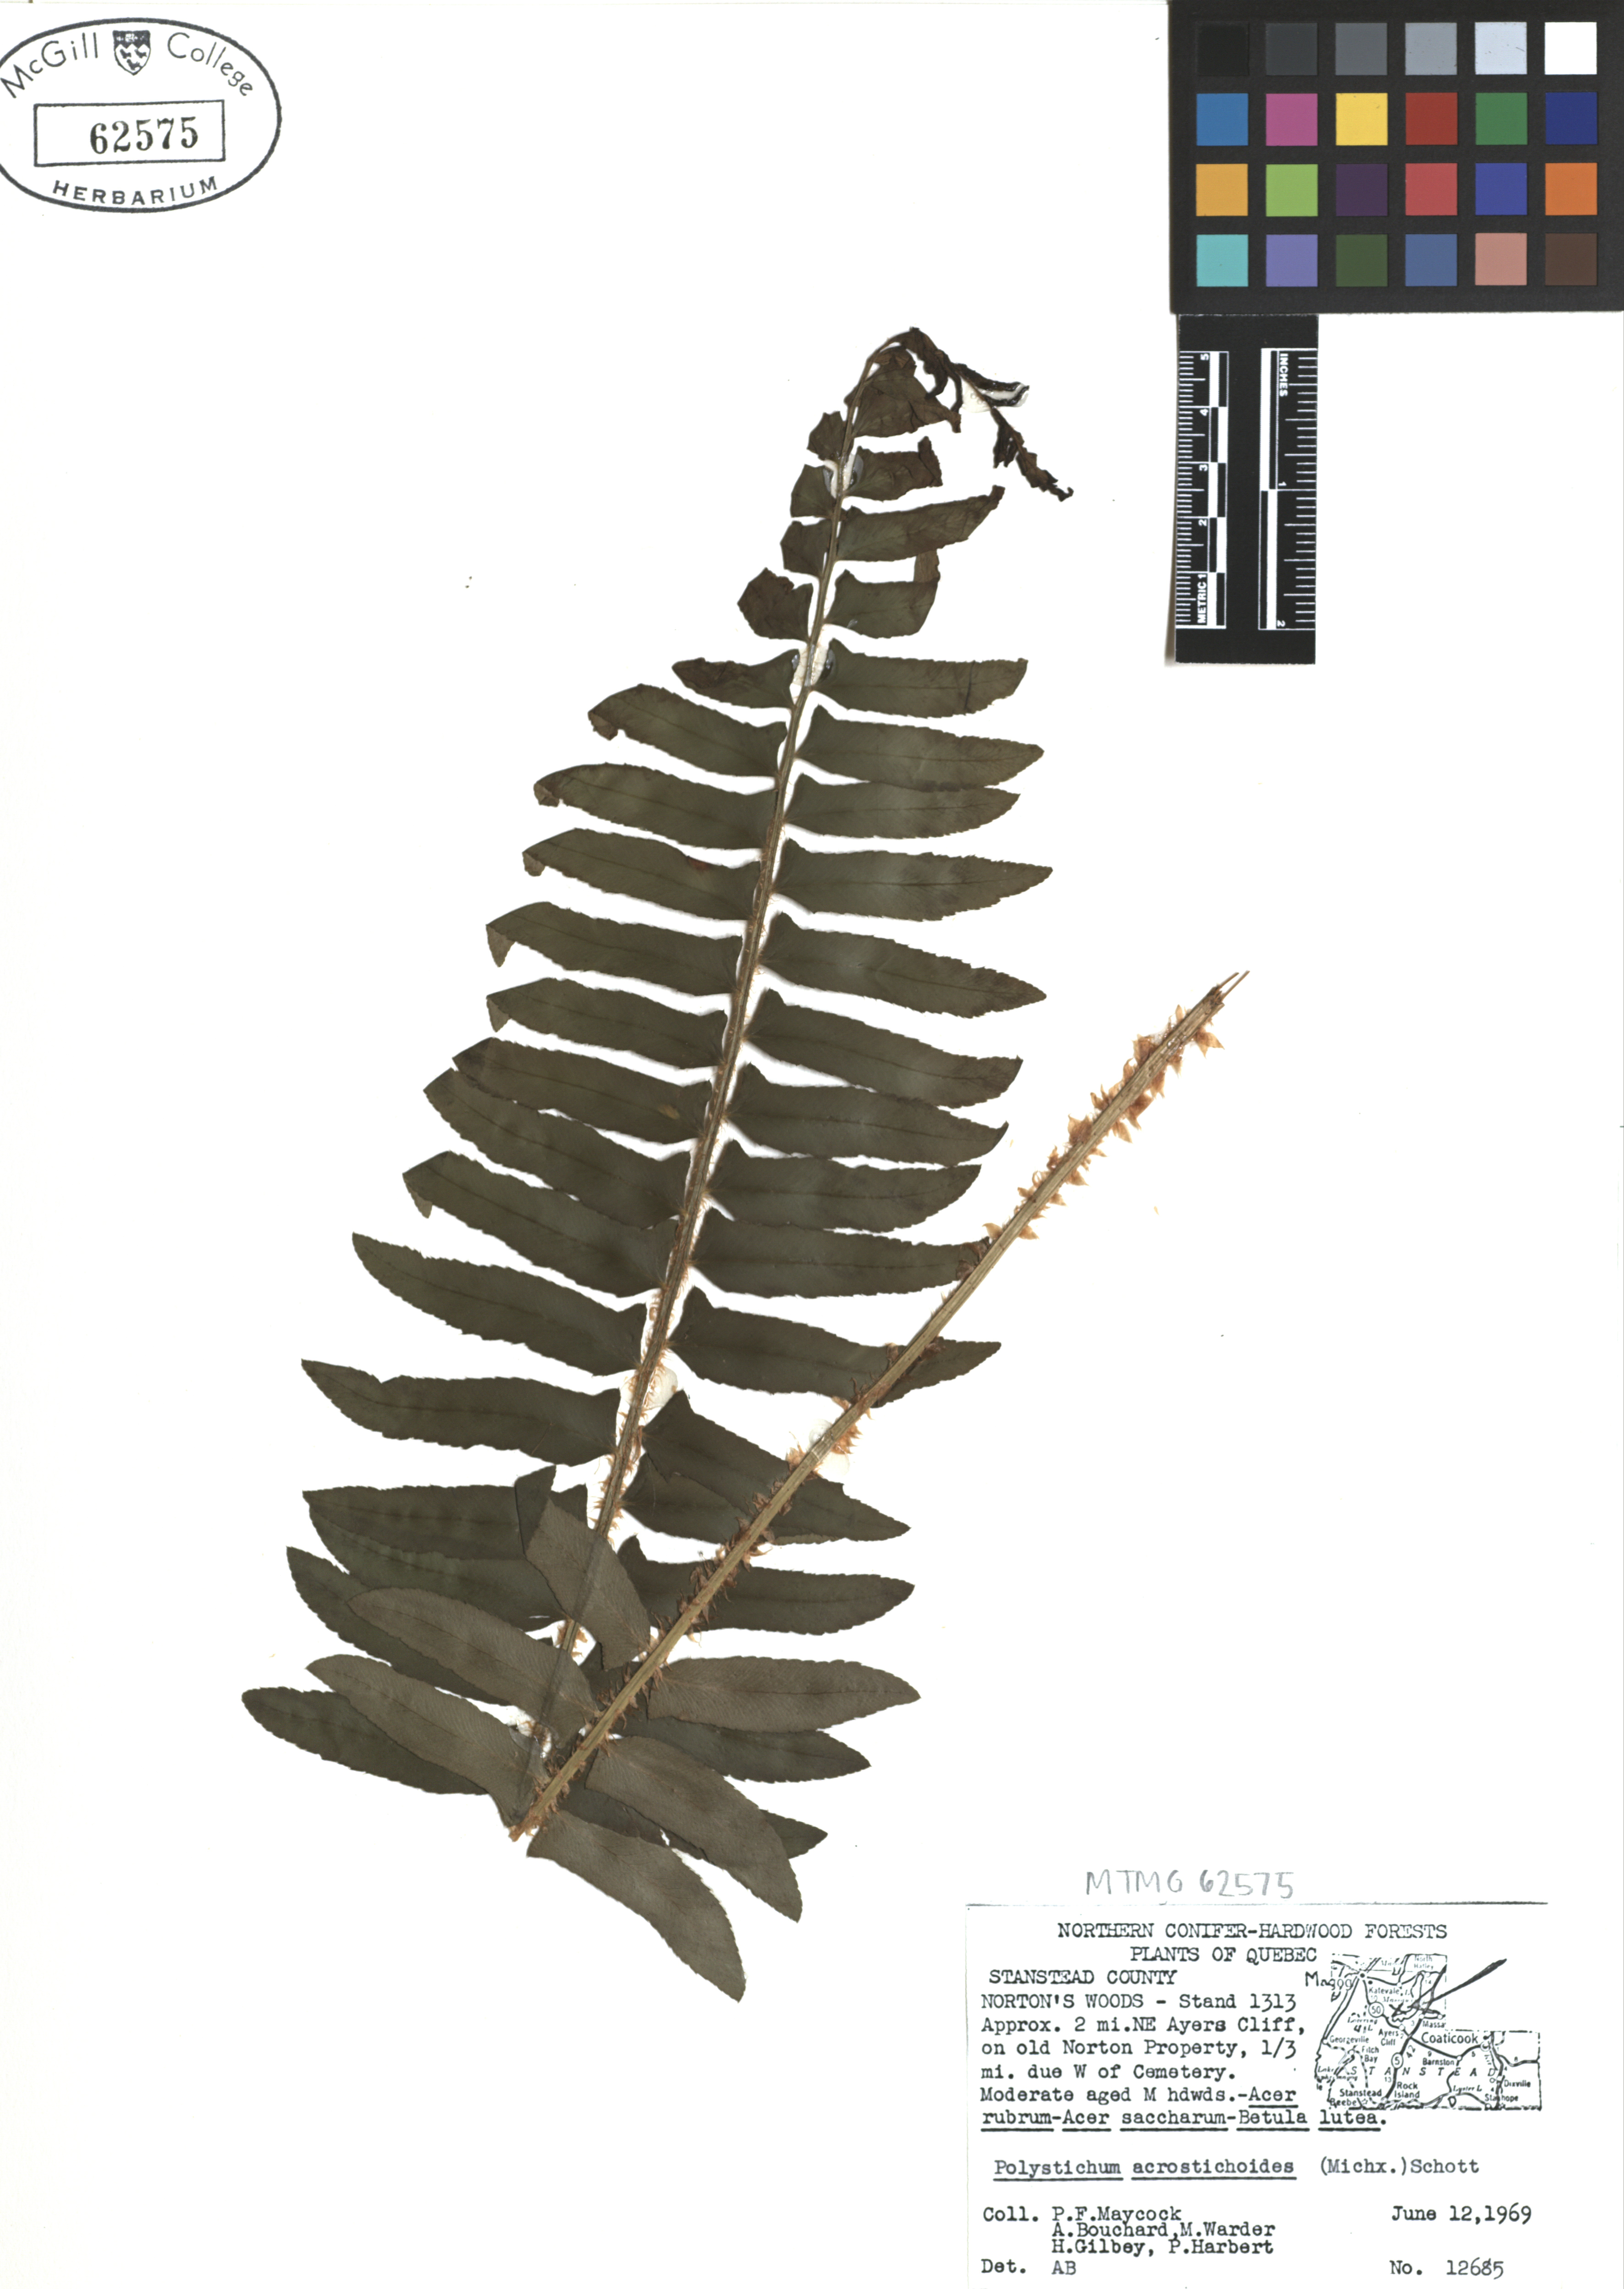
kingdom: Plantae
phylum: Tracheophyta
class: Polypodiopsida
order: Polypodiales
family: Dryopteridaceae
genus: Polystichum
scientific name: Polystichum acrostichoides
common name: Christmas fern
